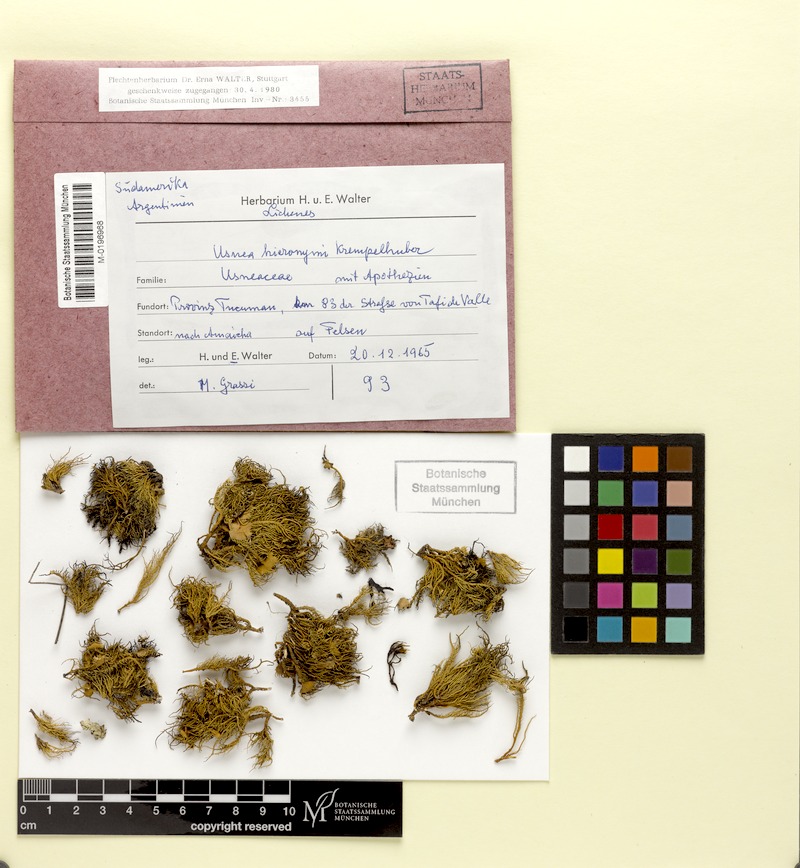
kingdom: Fungi
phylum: Ascomycota
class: Lecanoromycetes
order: Lecanorales
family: Parmeliaceae
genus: Usnea
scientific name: Usnea
